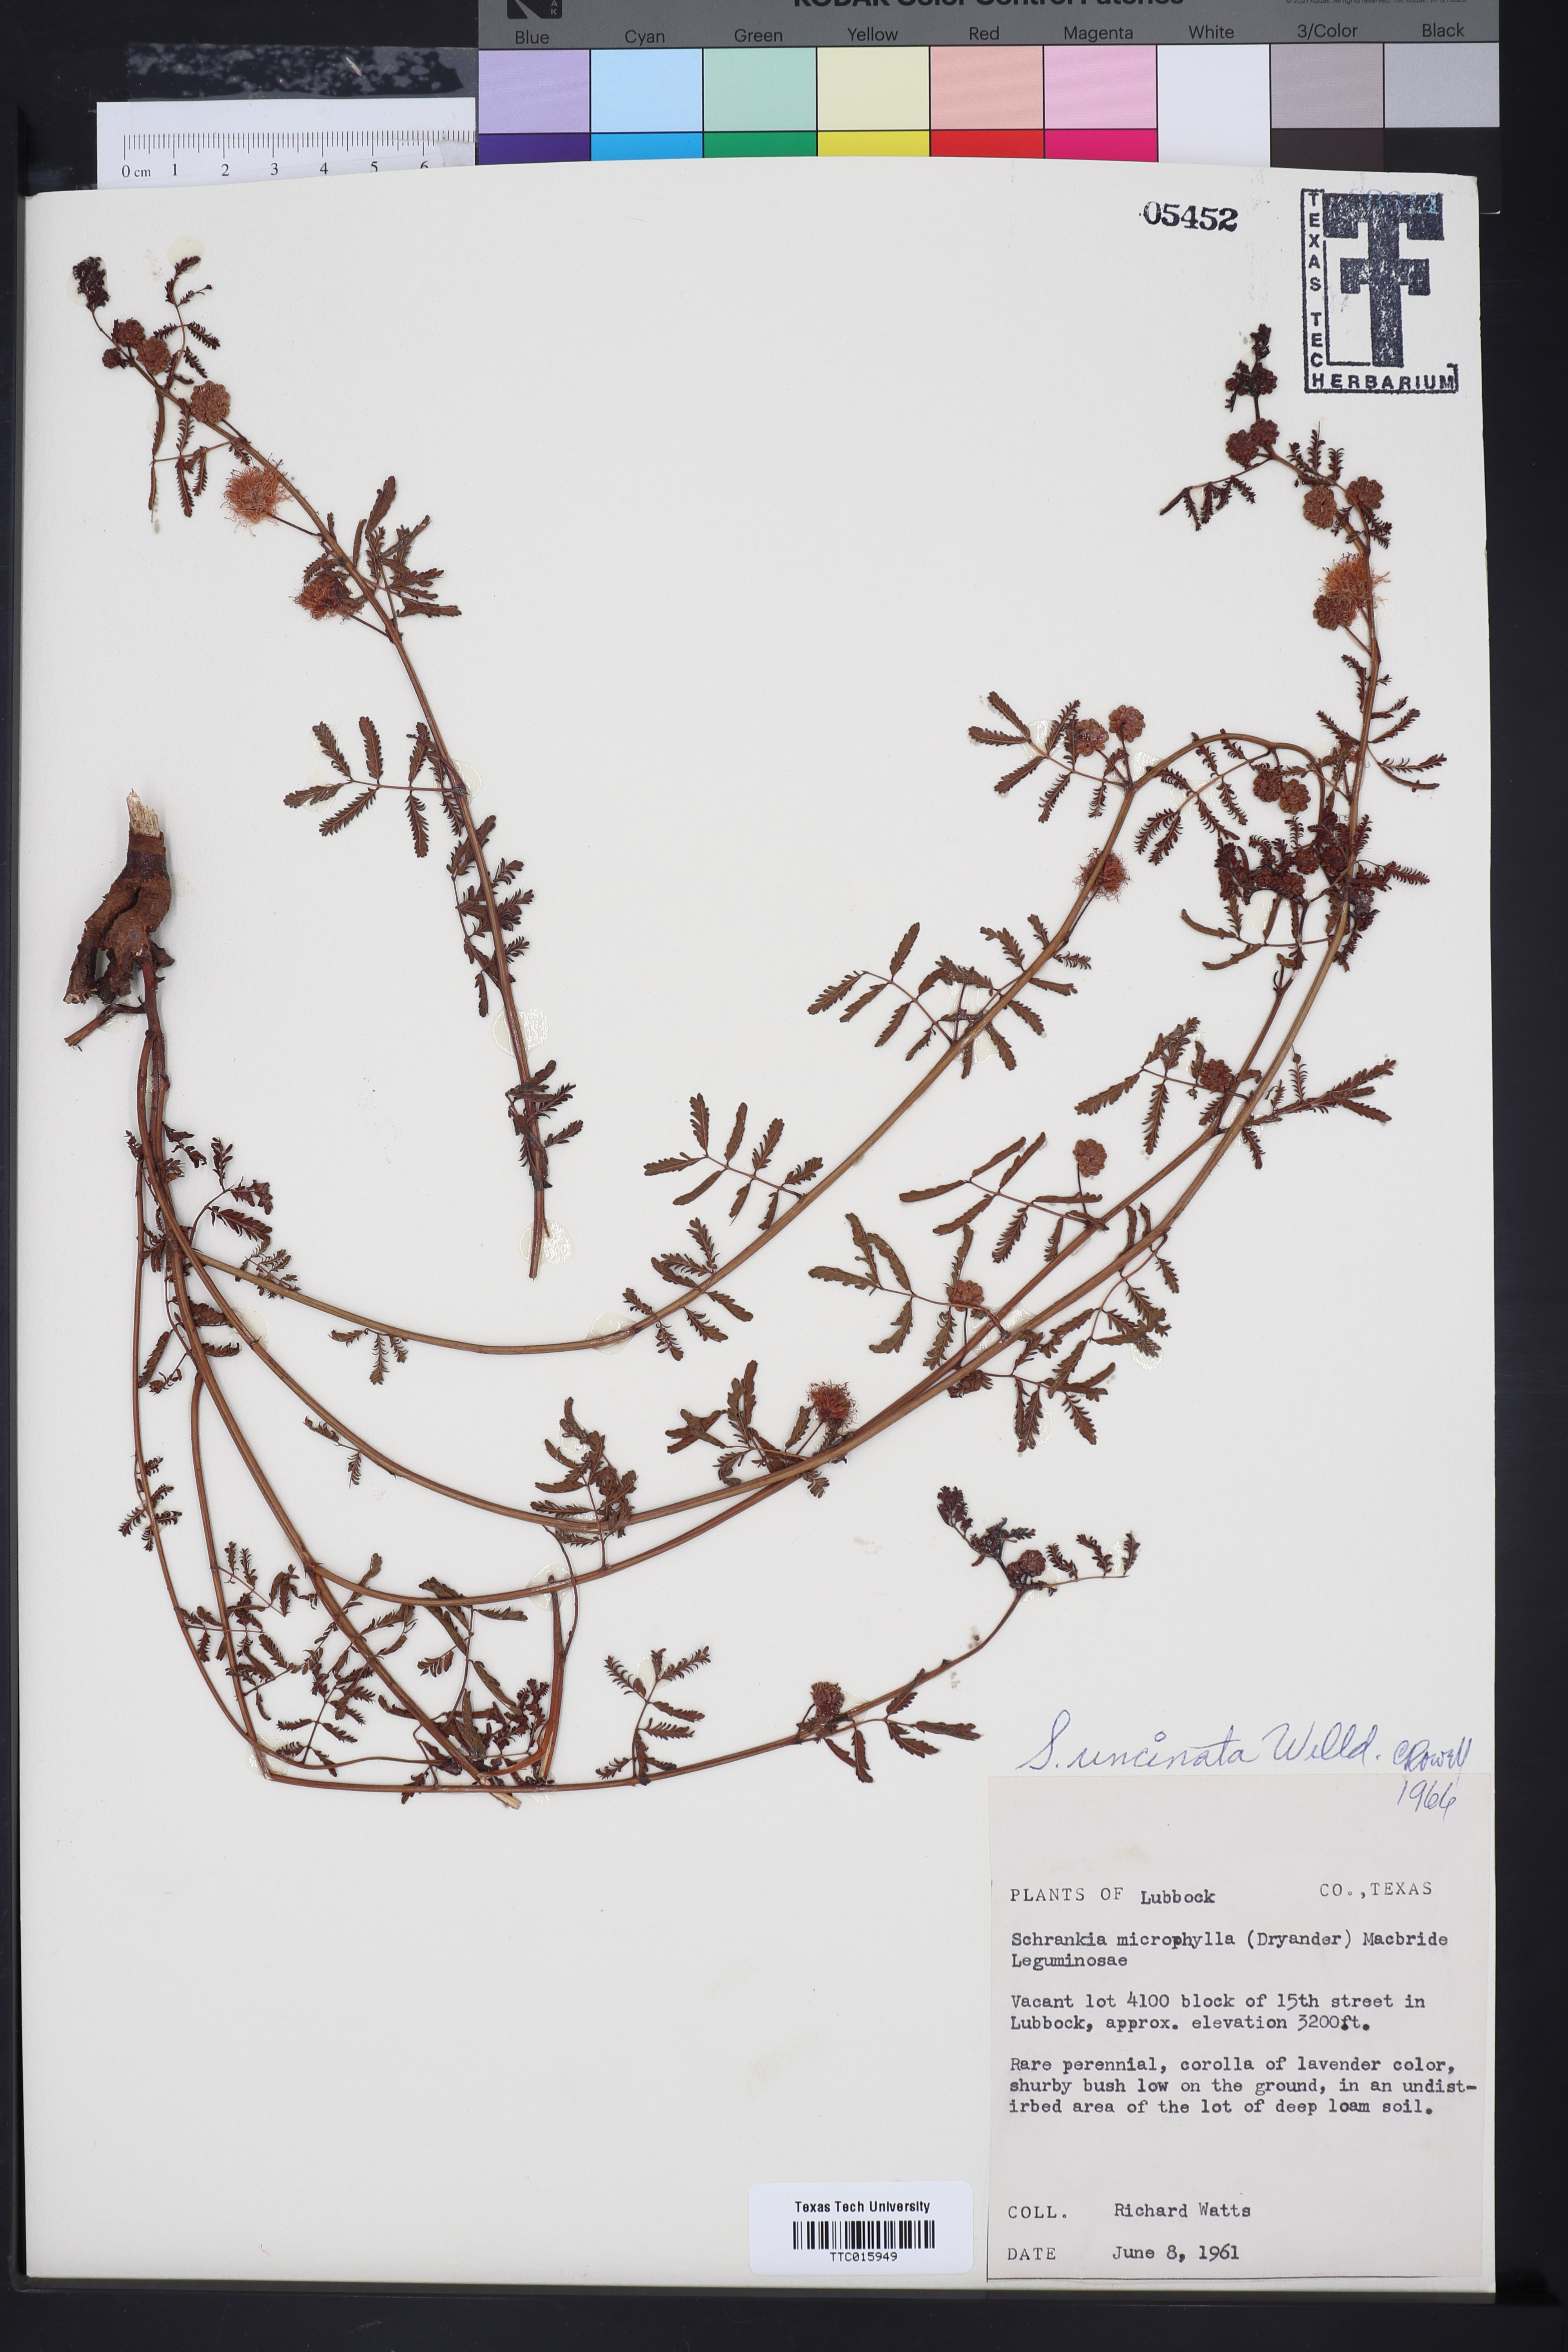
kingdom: Plantae
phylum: Tracheophyta
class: Magnoliopsida
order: Fabales
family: Fabaceae
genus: Mimosa
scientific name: Mimosa quadrivalvis
